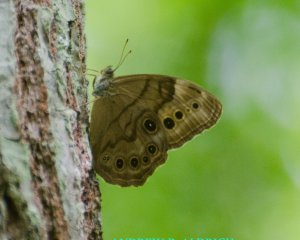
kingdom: Animalia
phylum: Arthropoda
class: Insecta
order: Lepidoptera
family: Nymphalidae
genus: Lethe
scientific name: Lethe anthedon
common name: Northern Pearly-Eye
